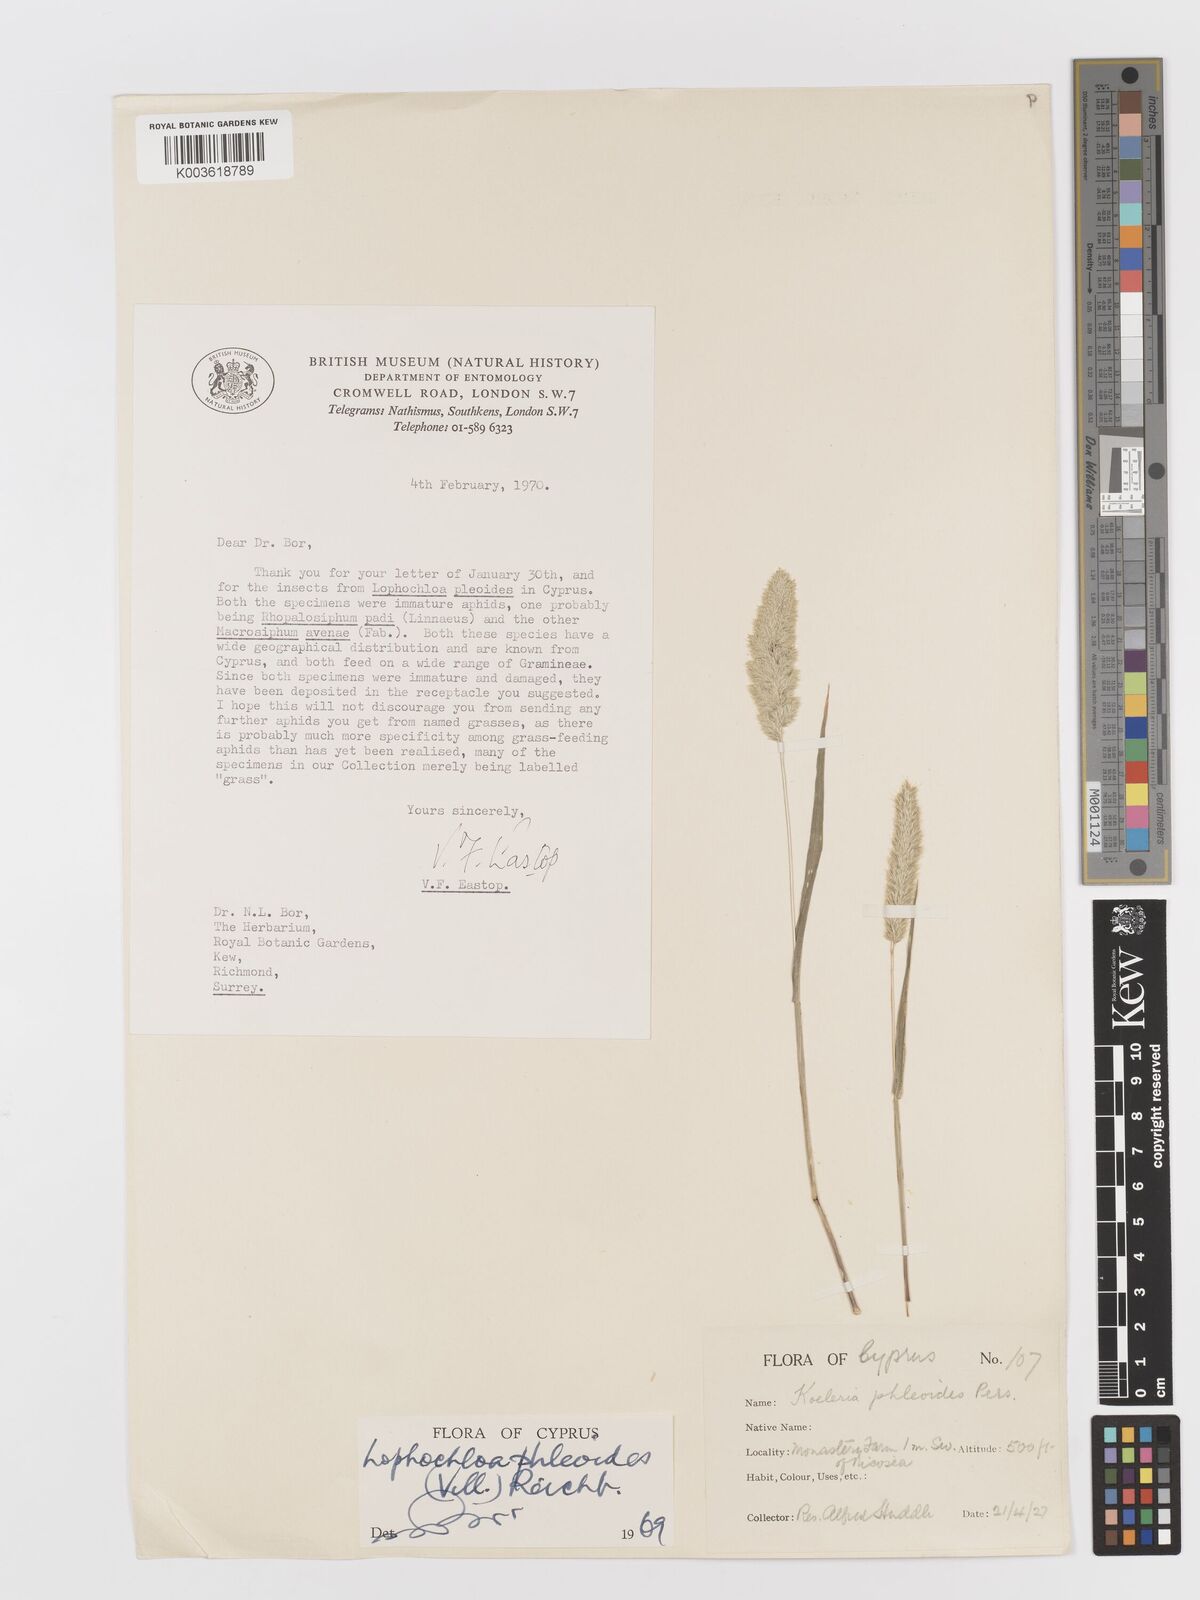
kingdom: Plantae
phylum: Tracheophyta
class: Liliopsida
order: Poales
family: Poaceae
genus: Rostraria
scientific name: Rostraria cristata
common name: Mediterranean hair-grass
